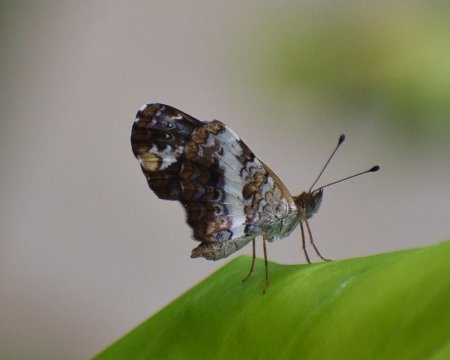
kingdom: Animalia
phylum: Arthropoda
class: Insecta
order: Lepidoptera
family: Nymphalidae
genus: Castilia
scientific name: Castilia ofella
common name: White-dotted Crescent
